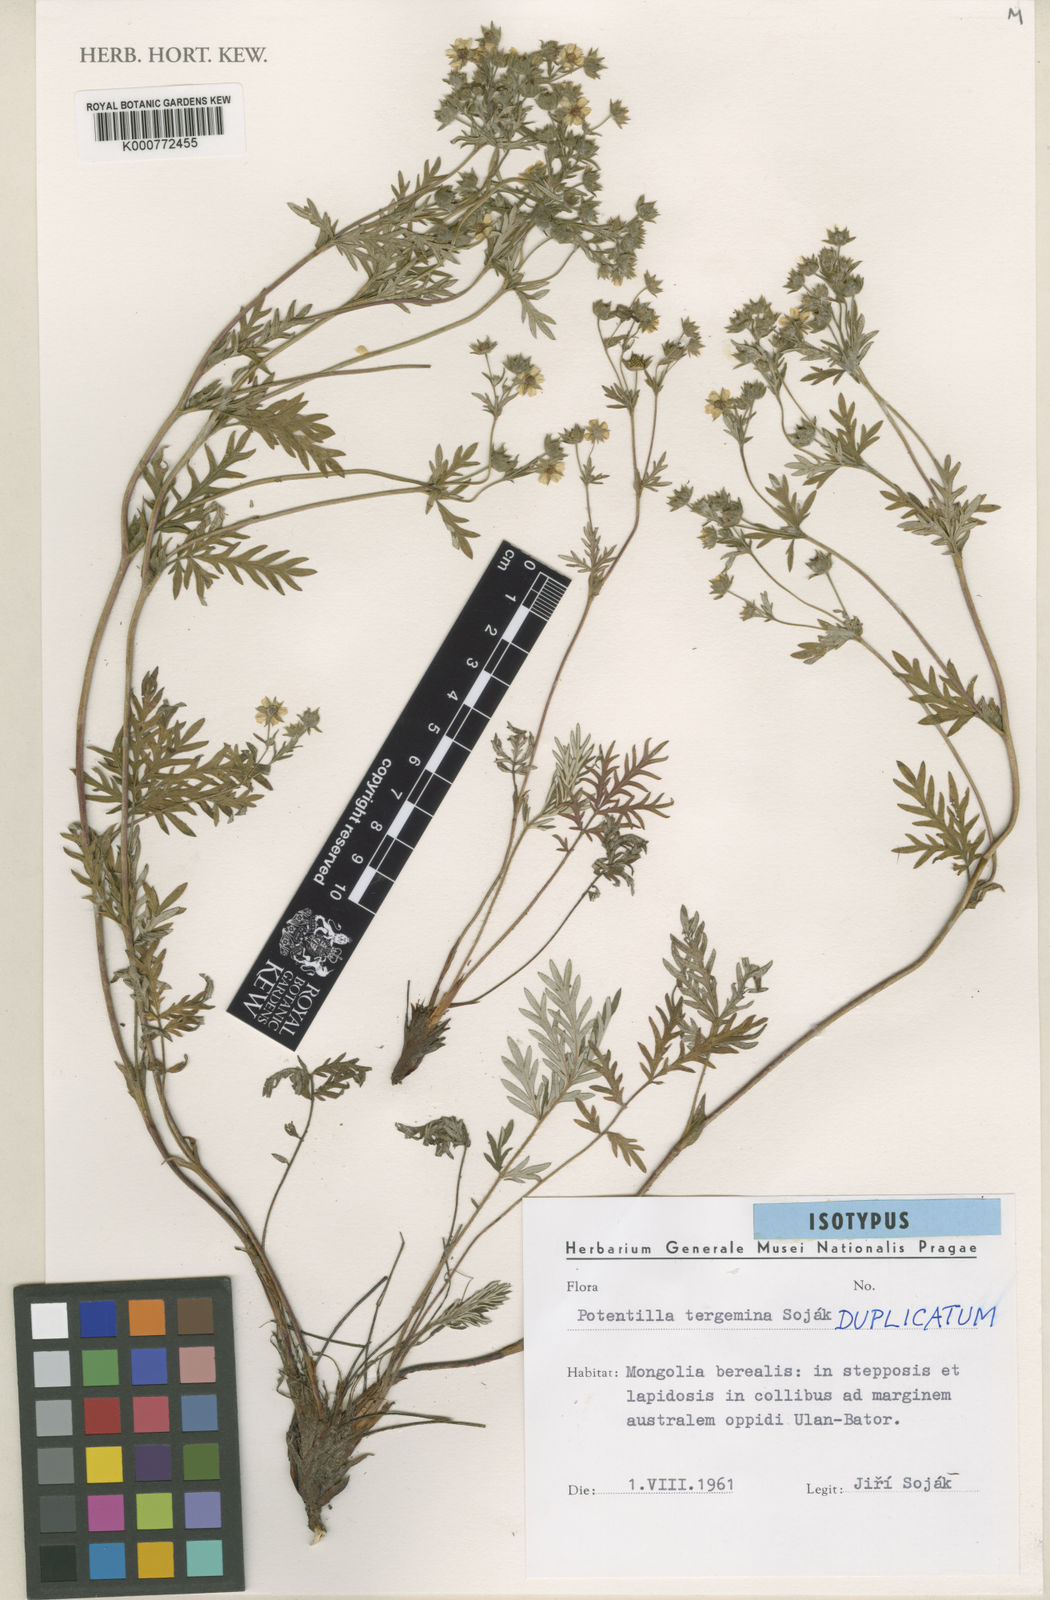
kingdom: Plantae
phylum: Tracheophyta
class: Magnoliopsida
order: Rosales
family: Rosaceae
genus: Potentilla
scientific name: Potentilla
